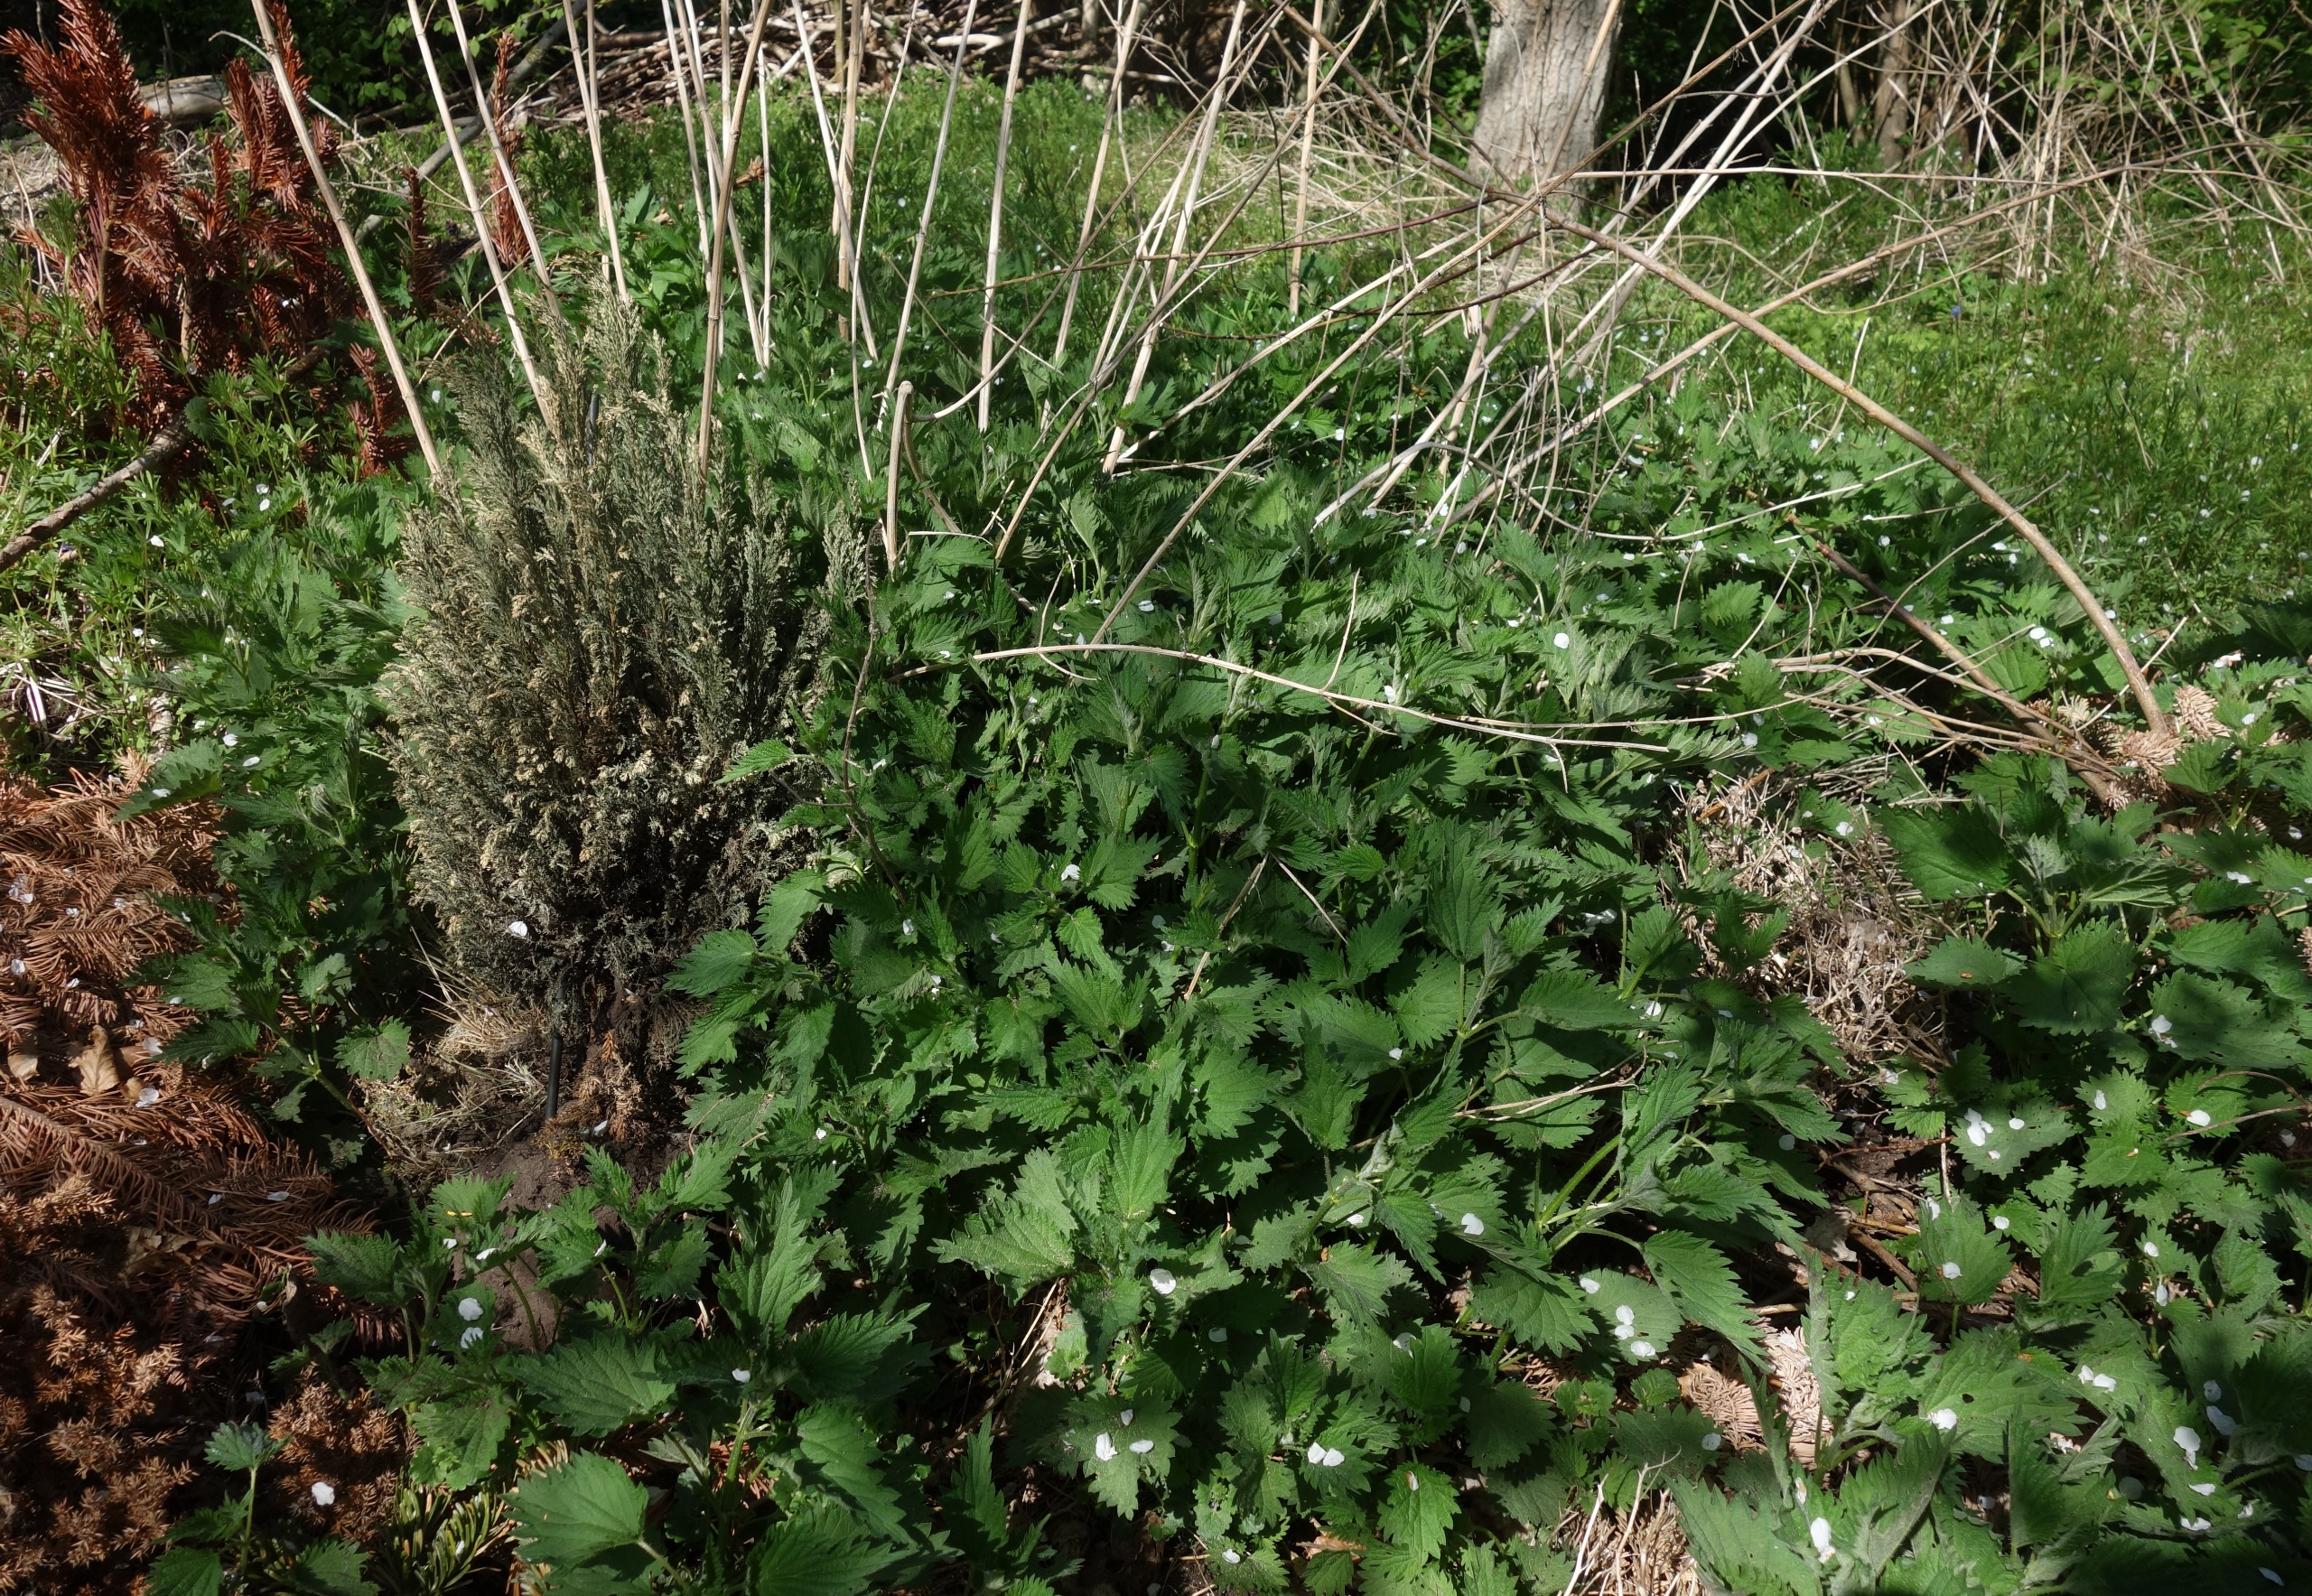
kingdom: Plantae
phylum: Tracheophyta
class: Magnoliopsida
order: Rosales
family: Urticaceae
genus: Urtica
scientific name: Urtica dioica
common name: Stor nælde
